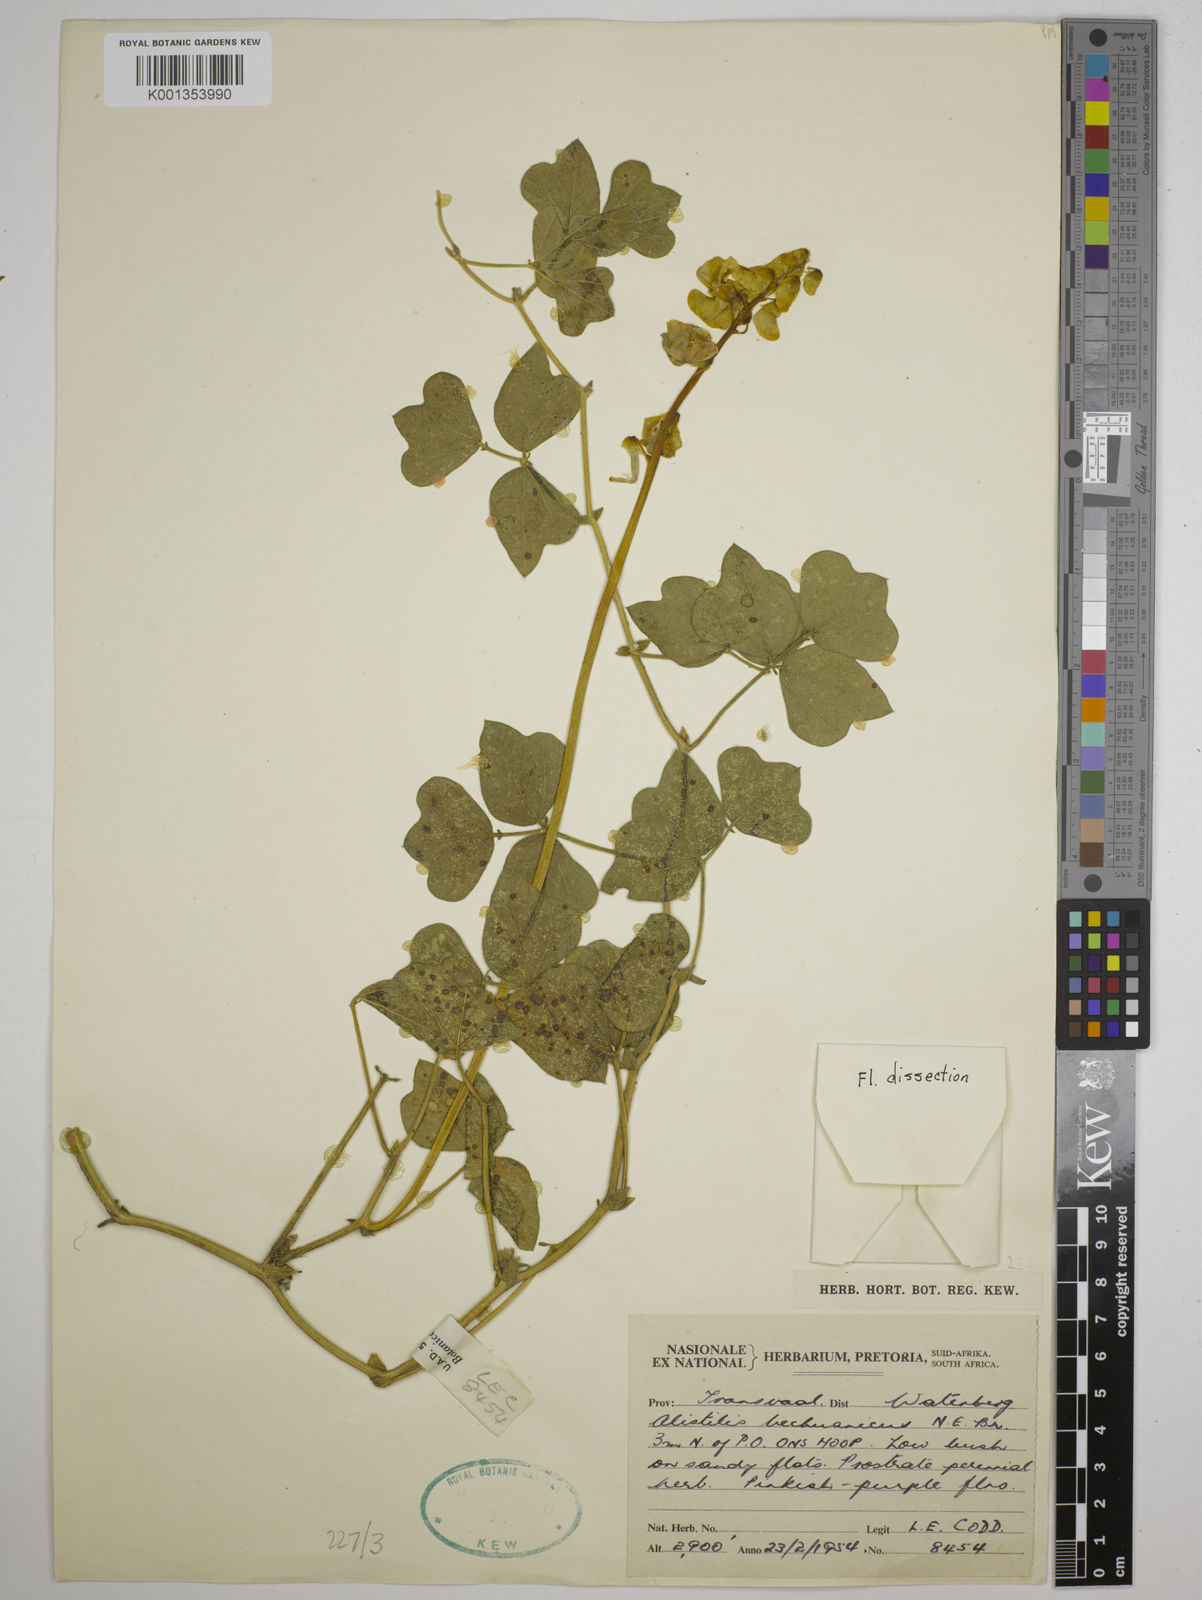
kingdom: Plantae
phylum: Tracheophyta
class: Magnoliopsida
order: Fabales
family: Fabaceae
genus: Alistilus
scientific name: Alistilus bechuanicus
